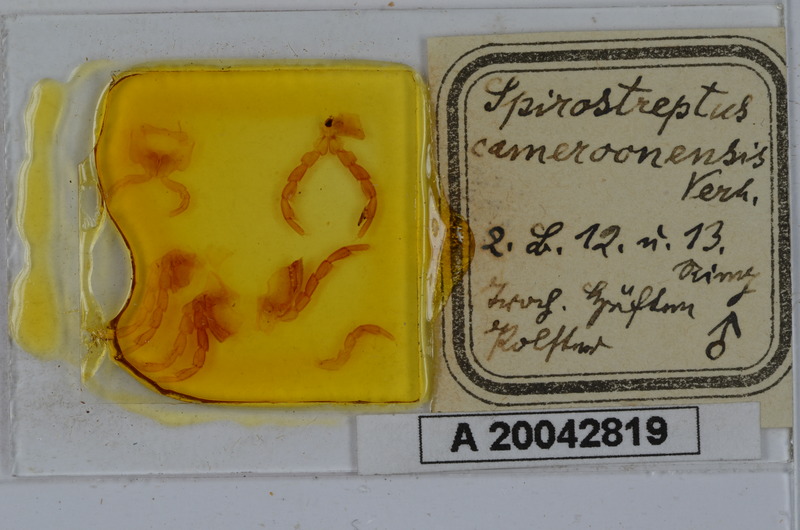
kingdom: Animalia
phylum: Arthropoda
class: Diplopoda
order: Spirostreptida
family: Spirostreptidae
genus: Kartinikus
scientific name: Kartinikus laevis
